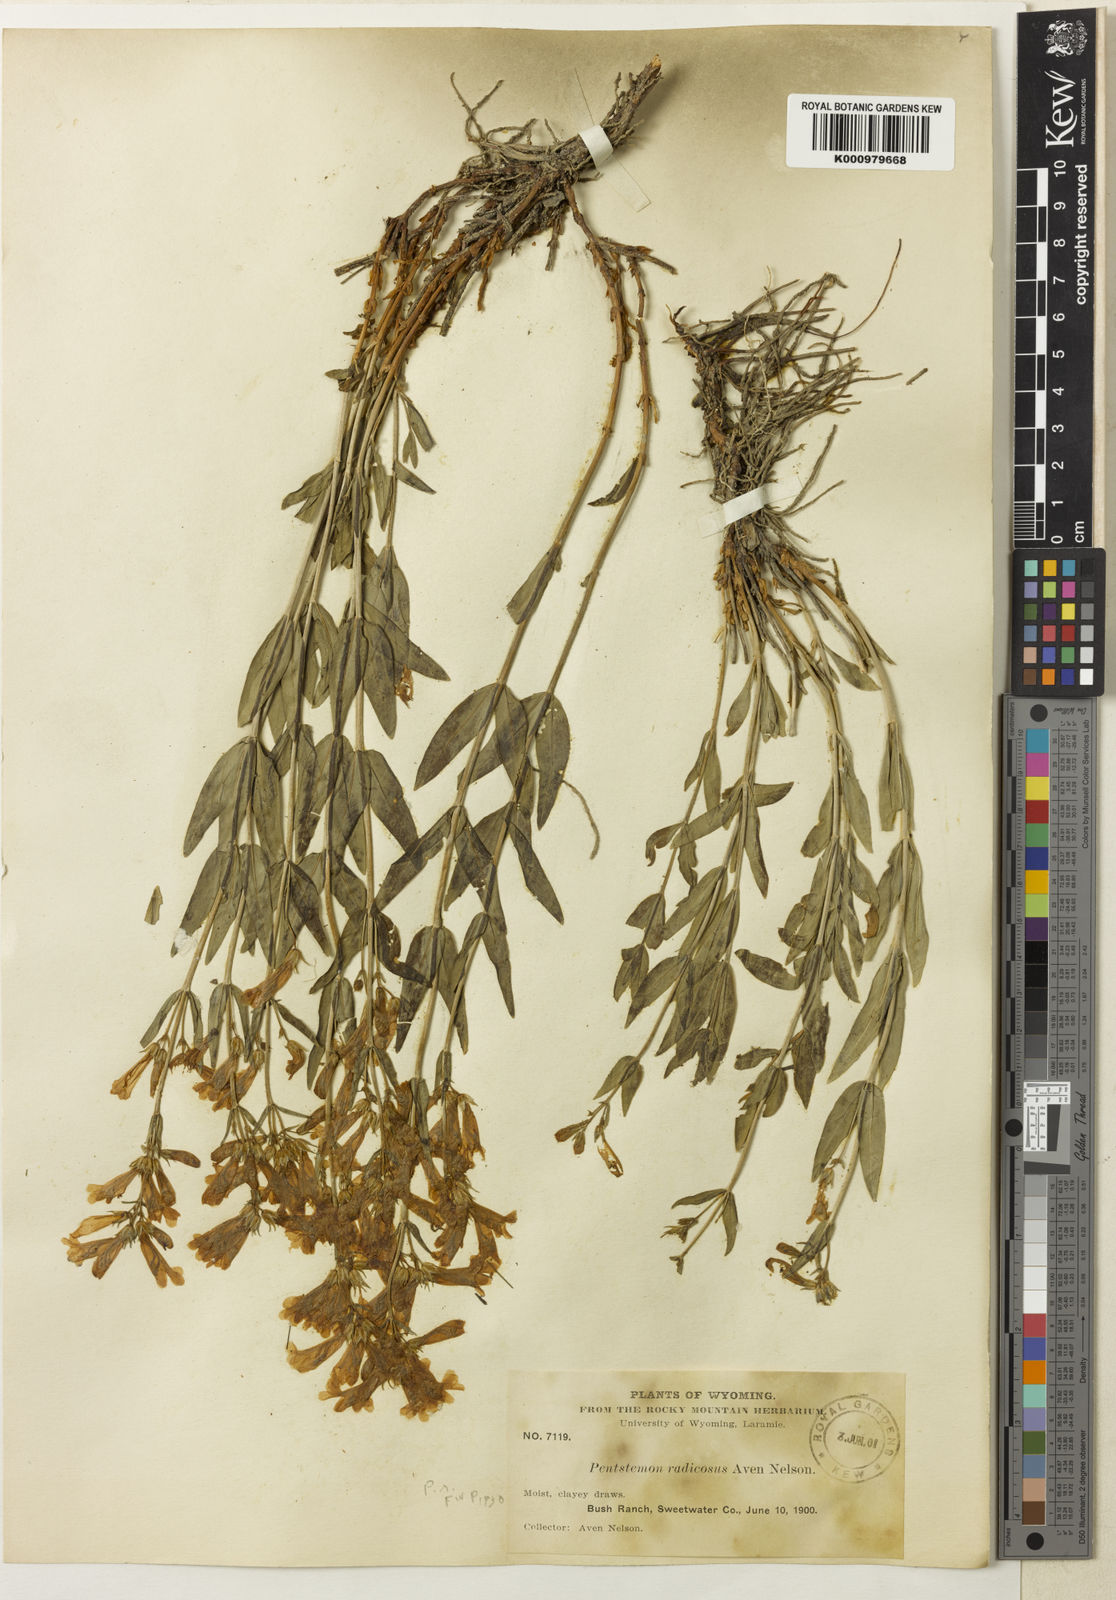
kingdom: Plantae
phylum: Tracheophyta
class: Magnoliopsida
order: Lamiales
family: Plantaginaceae
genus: Penstemon
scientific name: Penstemon radicosus
